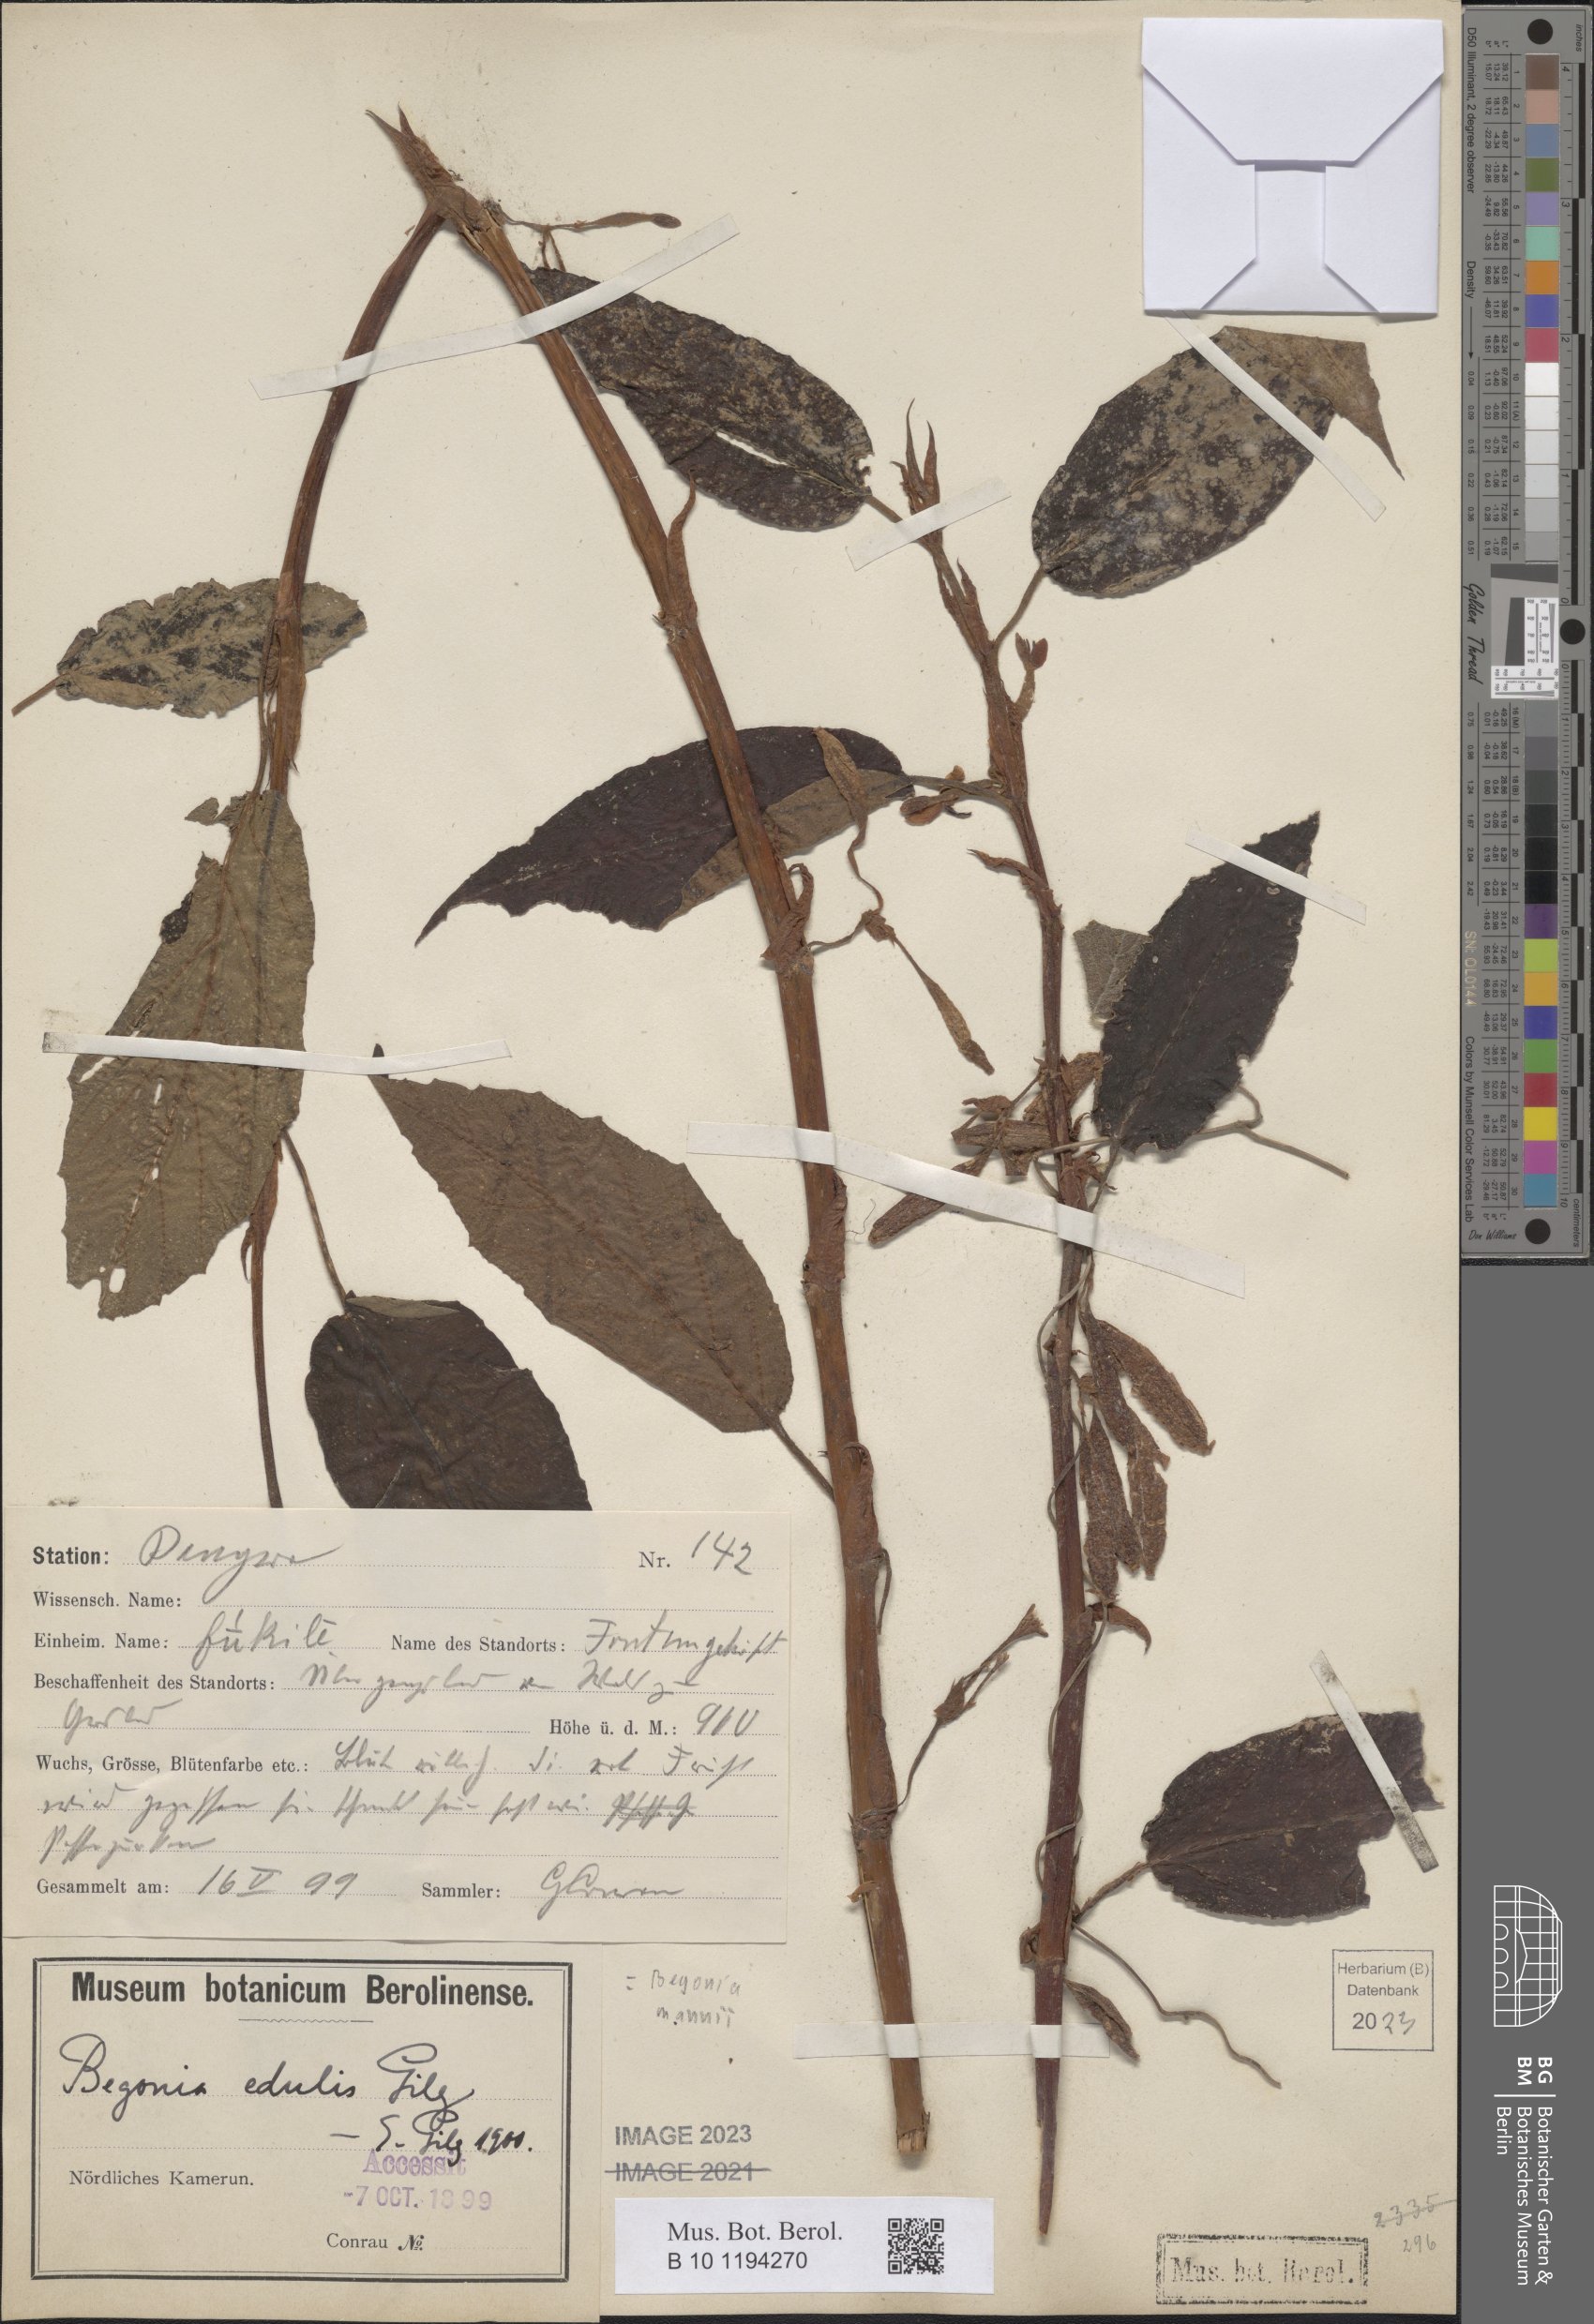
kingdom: Plantae
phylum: Tracheophyta
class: Magnoliopsida
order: Cucurbitales
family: Begoniaceae
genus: Begonia
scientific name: Begonia mannii
